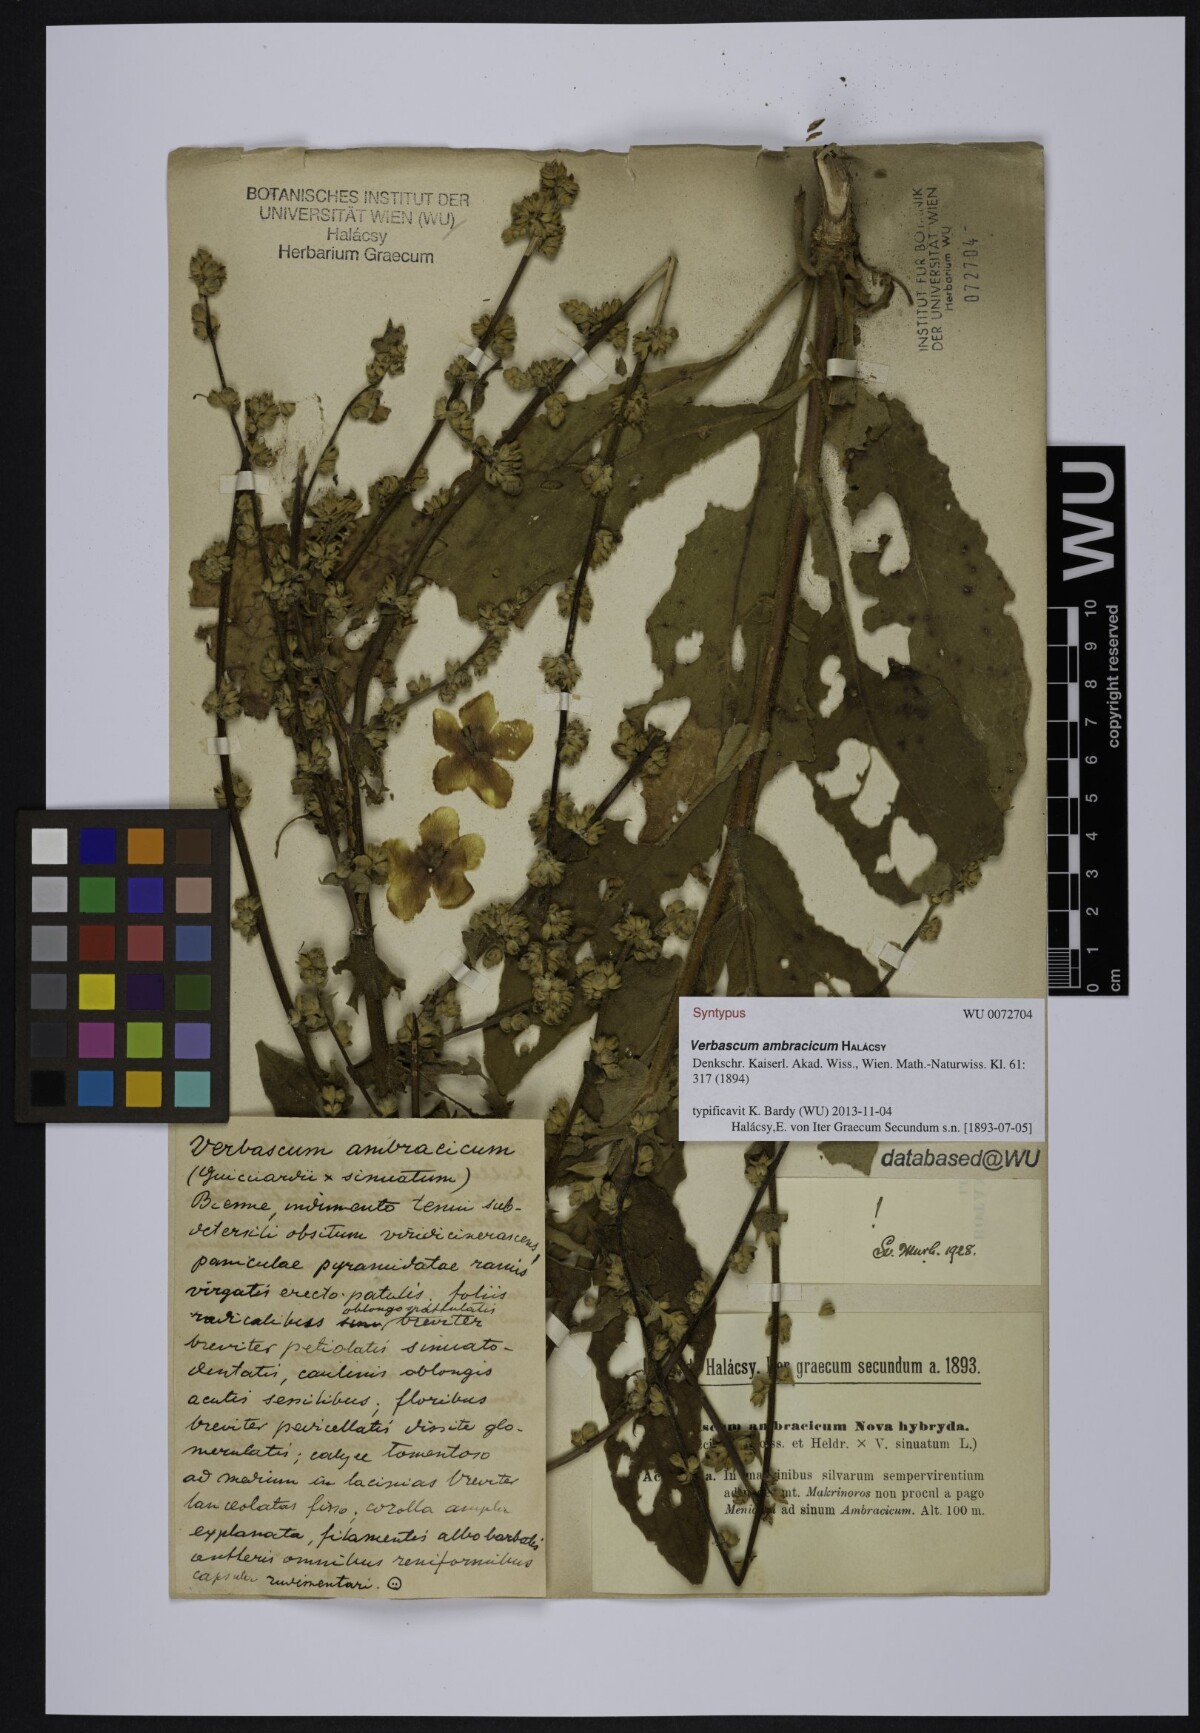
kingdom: Plantae
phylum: Tracheophyta
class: Magnoliopsida
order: Lamiales
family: Scrophulariaceae
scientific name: Scrophulariaceae
